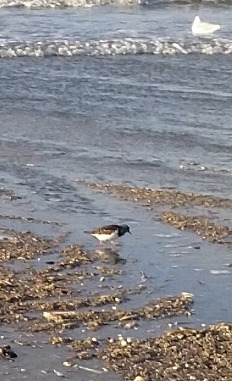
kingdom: Animalia
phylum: Chordata
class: Aves
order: Charadriiformes
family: Scolopacidae
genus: Arenaria
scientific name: Arenaria interpres
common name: Stenvender
